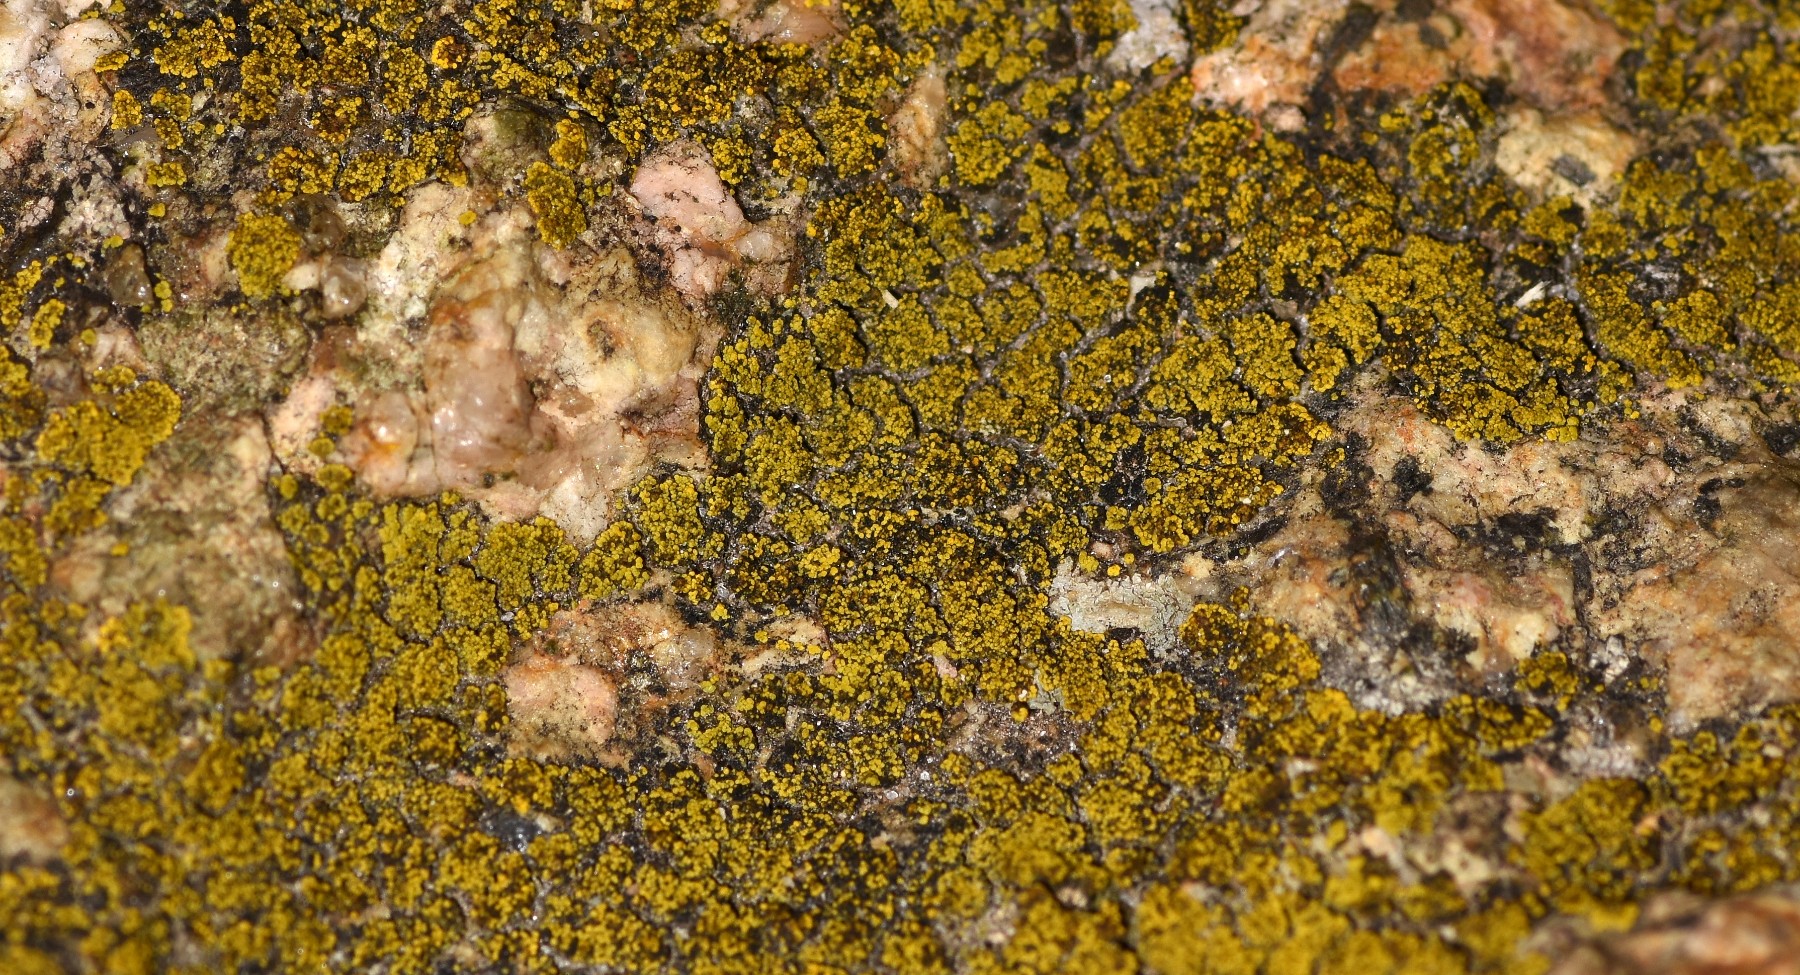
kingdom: Fungi
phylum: Ascomycota
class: Candelariomycetes
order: Candelariales
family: Candelariaceae
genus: Candelariella
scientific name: Candelariella vitellina
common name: almindelig æggeblommelav
